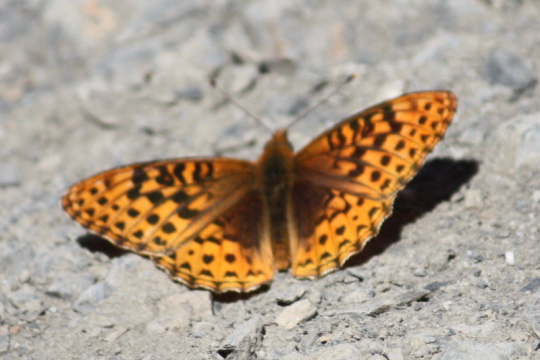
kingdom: Animalia
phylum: Arthropoda
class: Insecta
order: Lepidoptera
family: Nymphalidae
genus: Speyeria
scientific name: Speyeria hydaspe
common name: Hydaspe Fritillary
